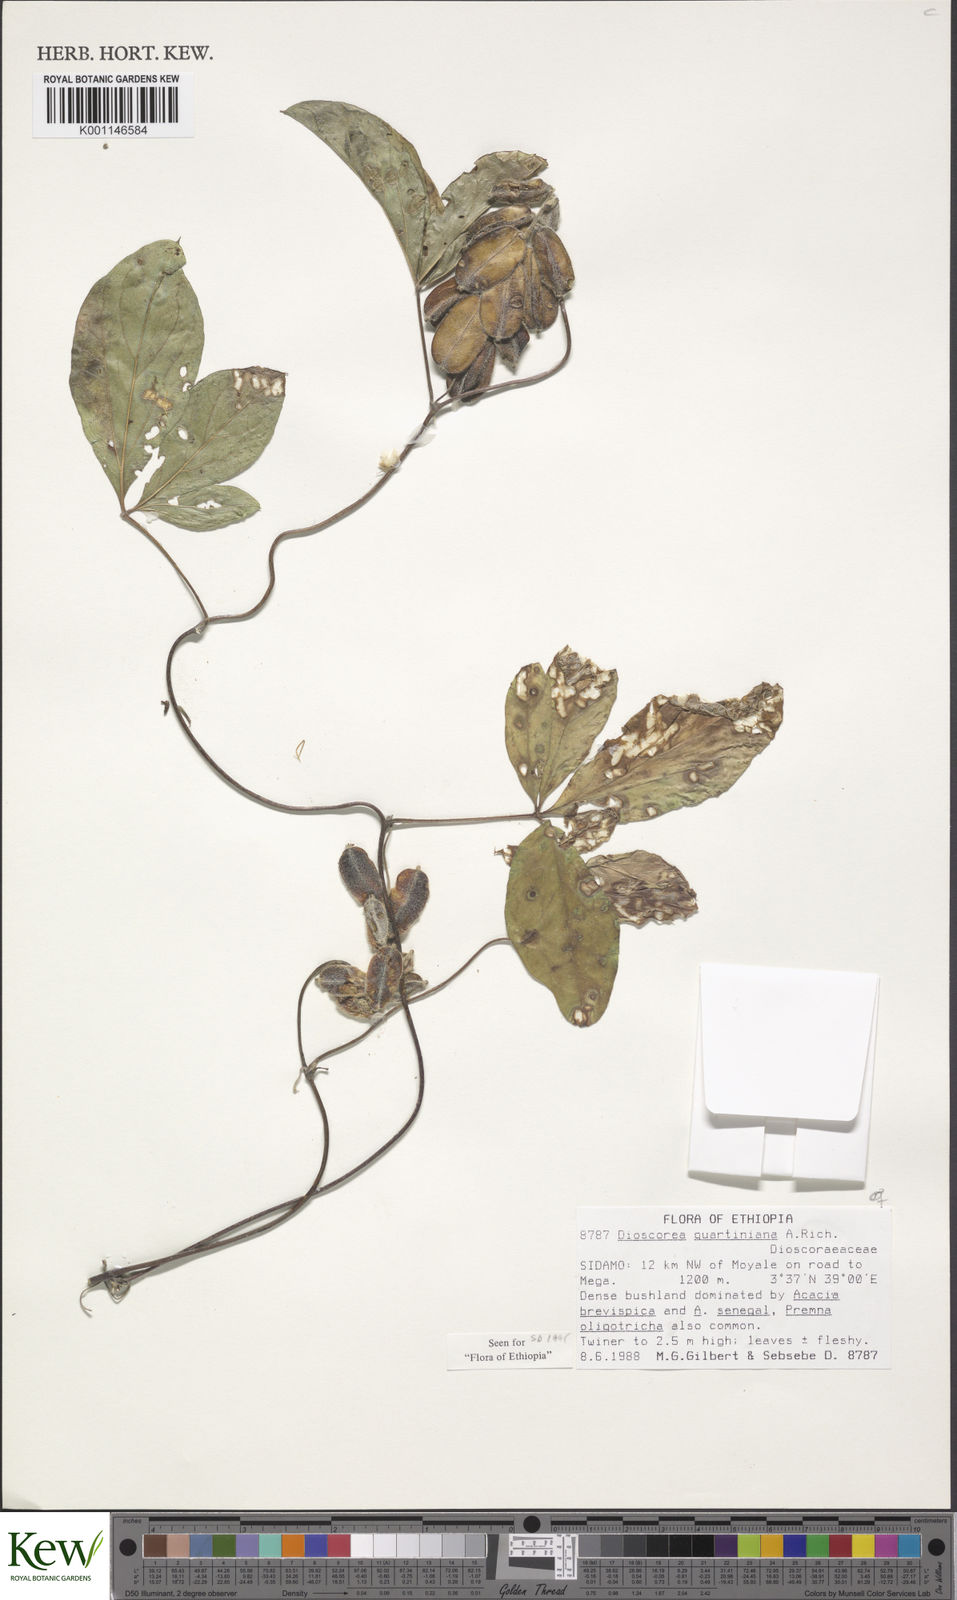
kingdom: Plantae
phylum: Tracheophyta
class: Liliopsida
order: Dioscoreales
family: Dioscoreaceae
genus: Dioscorea
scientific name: Dioscorea quartiniana
